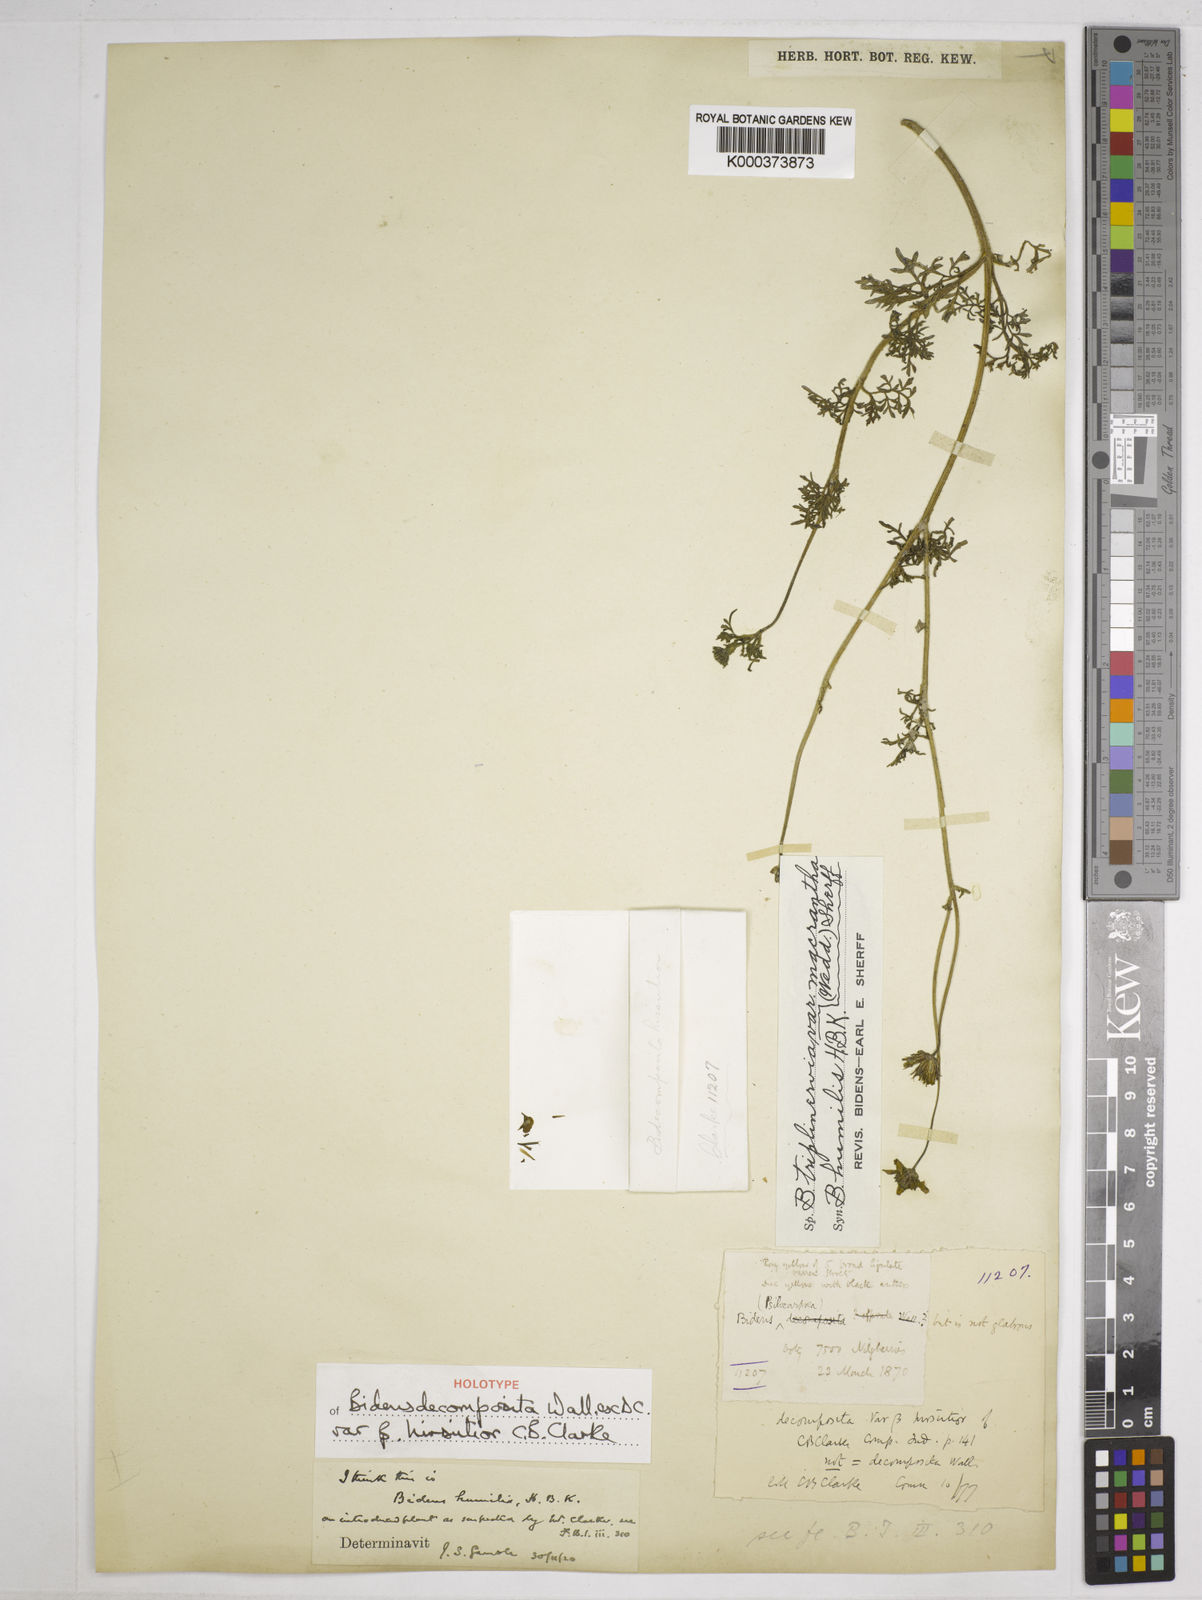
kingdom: Plantae
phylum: Tracheophyta
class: Magnoliopsida
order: Asterales
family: Asteraceae
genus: Bidens
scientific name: Bidens triplinervia
